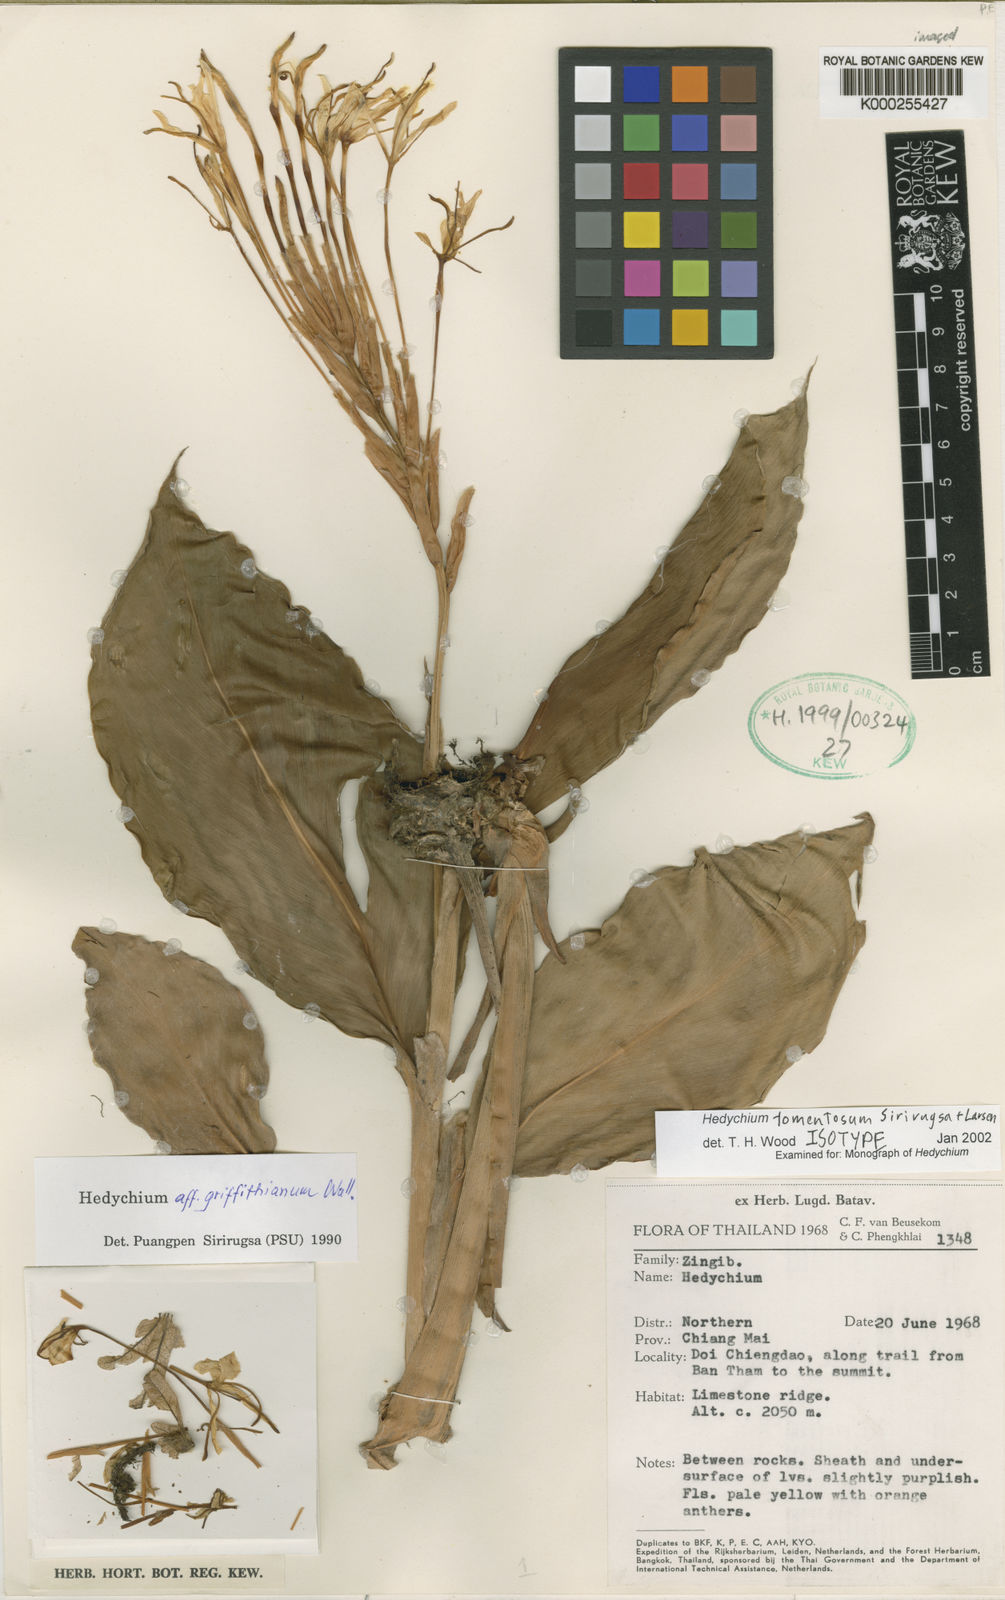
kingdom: Plantae
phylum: Tracheophyta
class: Liliopsida
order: Zingiberales
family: Zingiberaceae
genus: Hedychium
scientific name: Hedychium tomentosum
